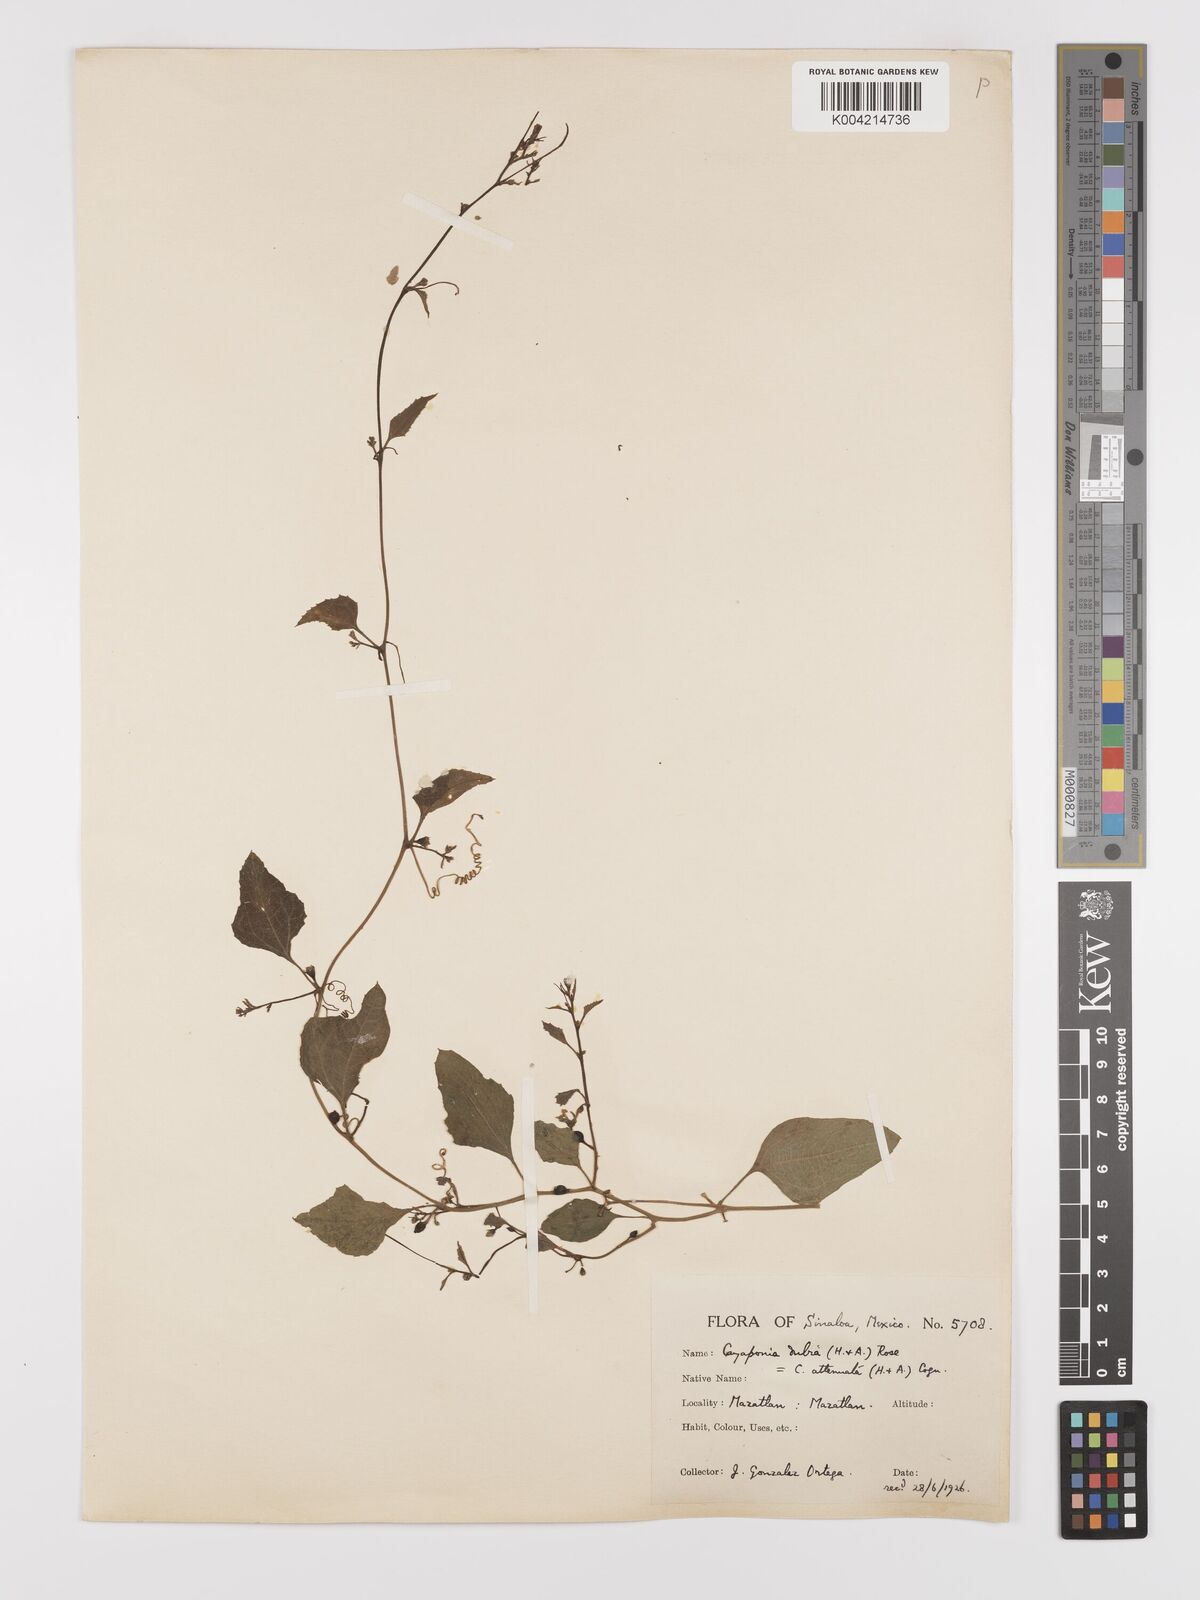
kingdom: Plantae
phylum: Tracheophyta
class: Magnoliopsida
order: Cucurbitales
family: Cucurbitaceae
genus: Cayaponia
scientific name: Cayaponia attenuata
